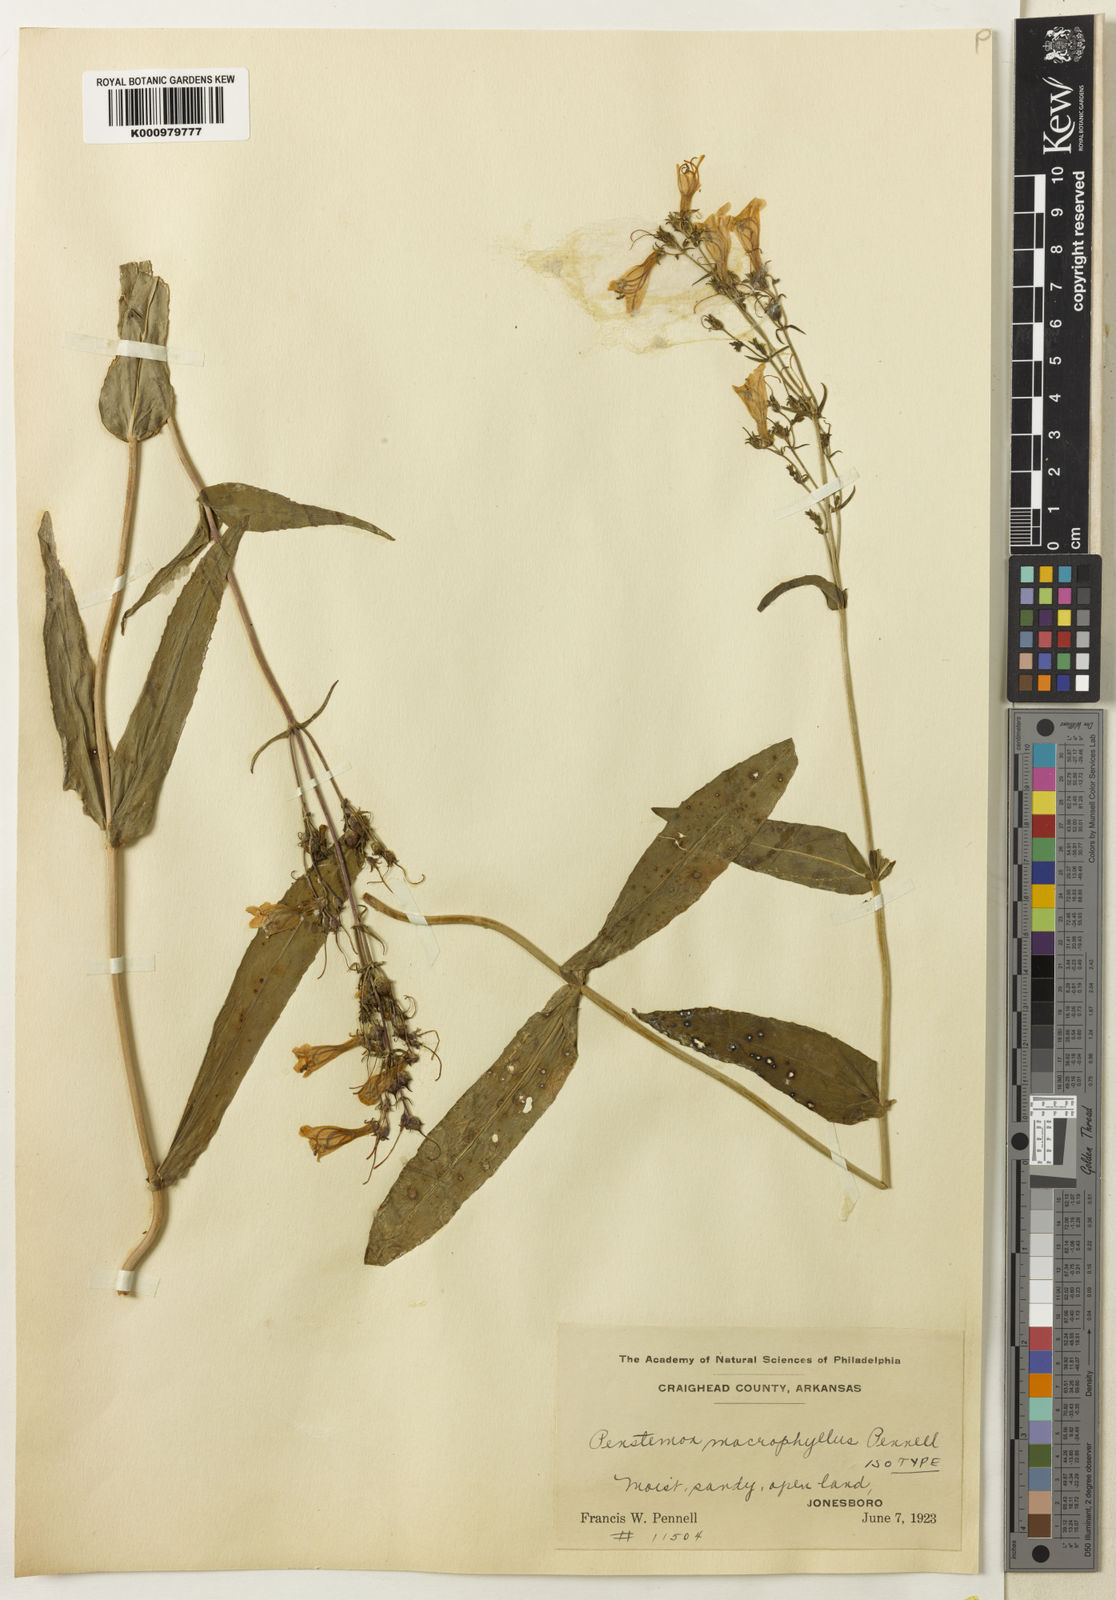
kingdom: Plantae
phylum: Tracheophyta
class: Magnoliopsida
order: Lamiales
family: Plantaginaceae
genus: Penstemon
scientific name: Penstemon
